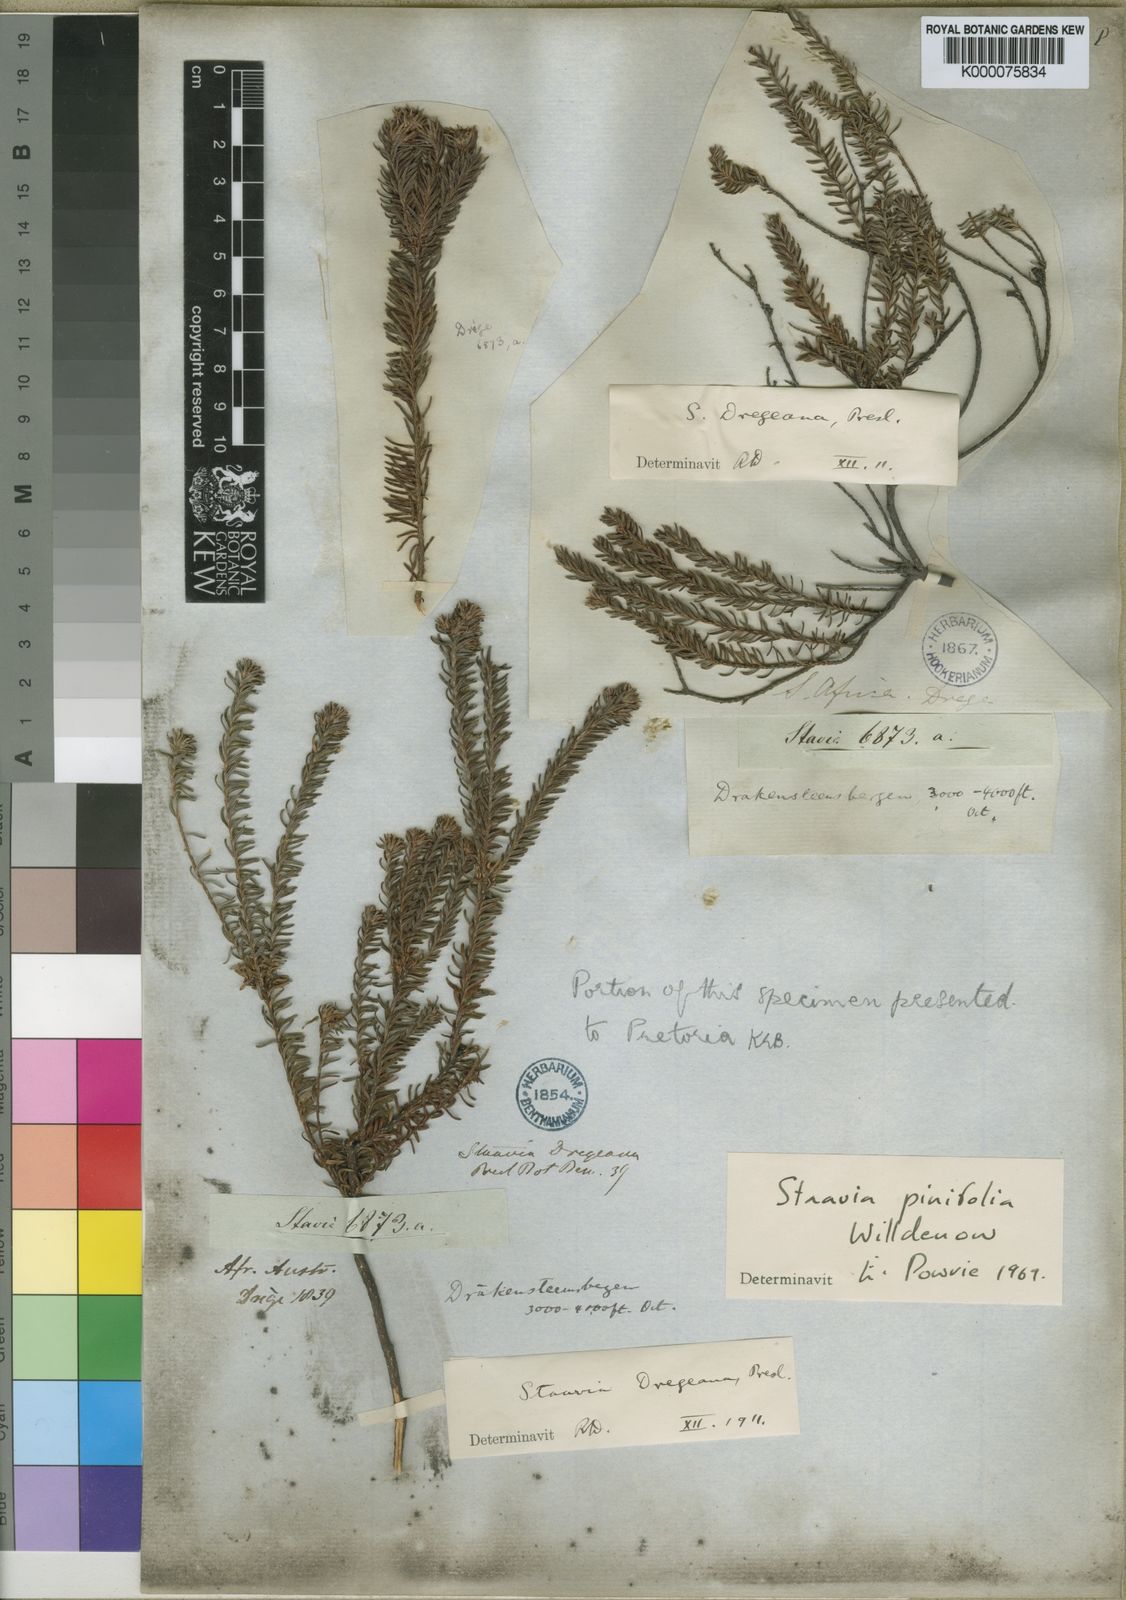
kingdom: Plantae
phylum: Tracheophyta
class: Magnoliopsida
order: Bruniales
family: Bruniaceae
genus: Staavia
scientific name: Staavia pinifolia
